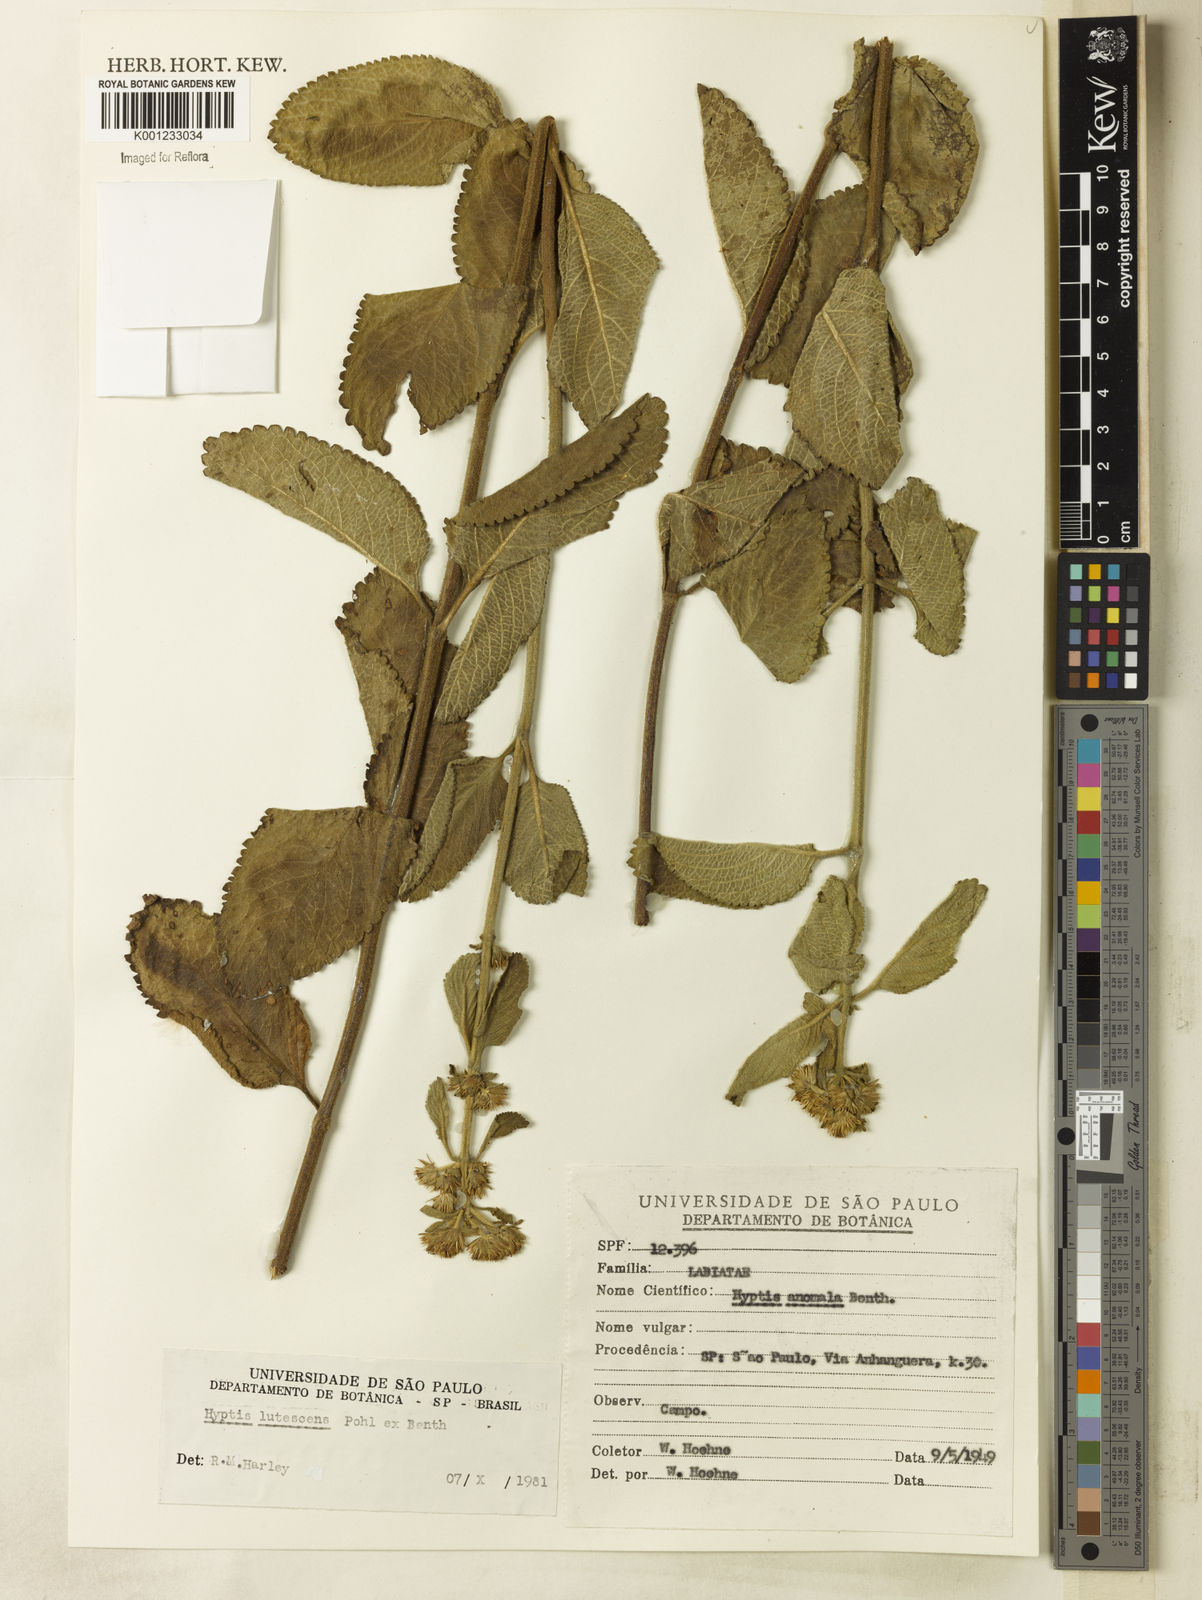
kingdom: Plantae
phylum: Tracheophyta
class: Magnoliopsida
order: Lamiales
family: Lamiaceae
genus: Hyptis
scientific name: Hyptis lutescens
